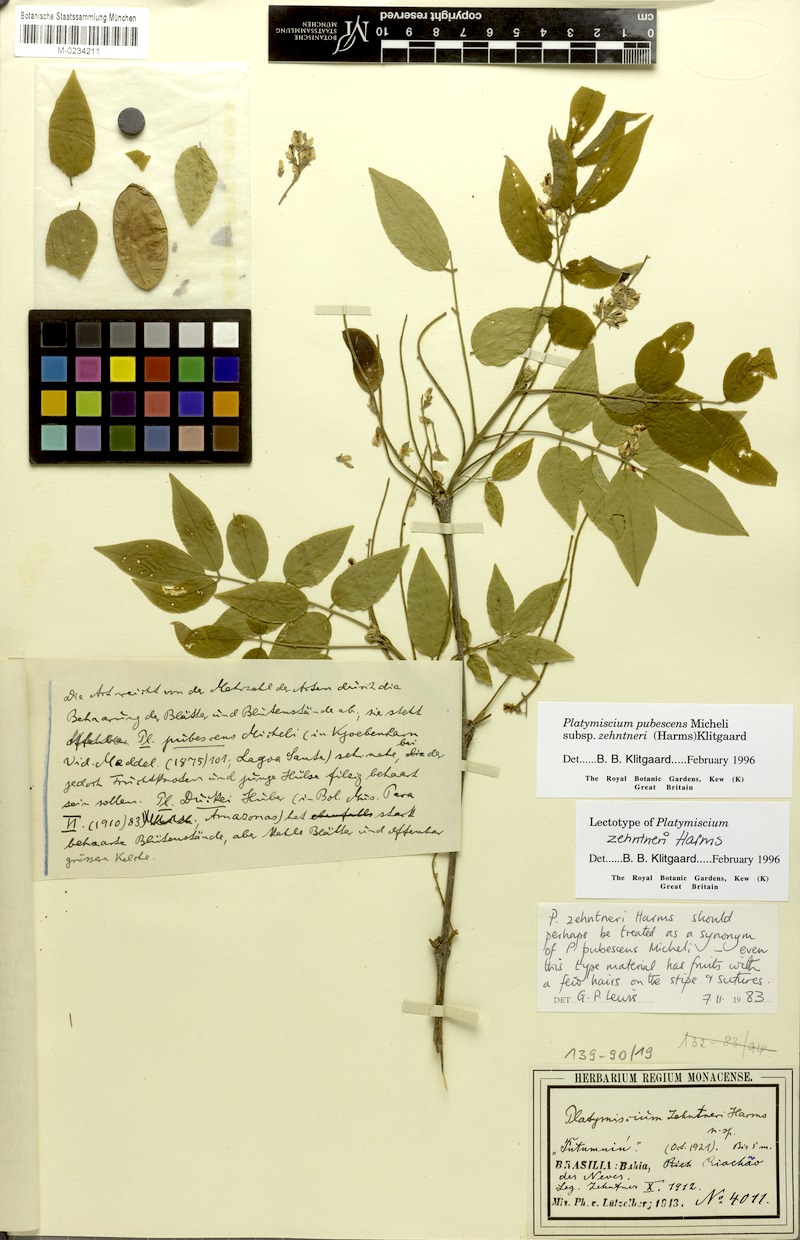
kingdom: Plantae
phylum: Tracheophyta
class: Magnoliopsida
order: Fabales
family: Fabaceae
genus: Platymiscium
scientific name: Platymiscium pubescens
